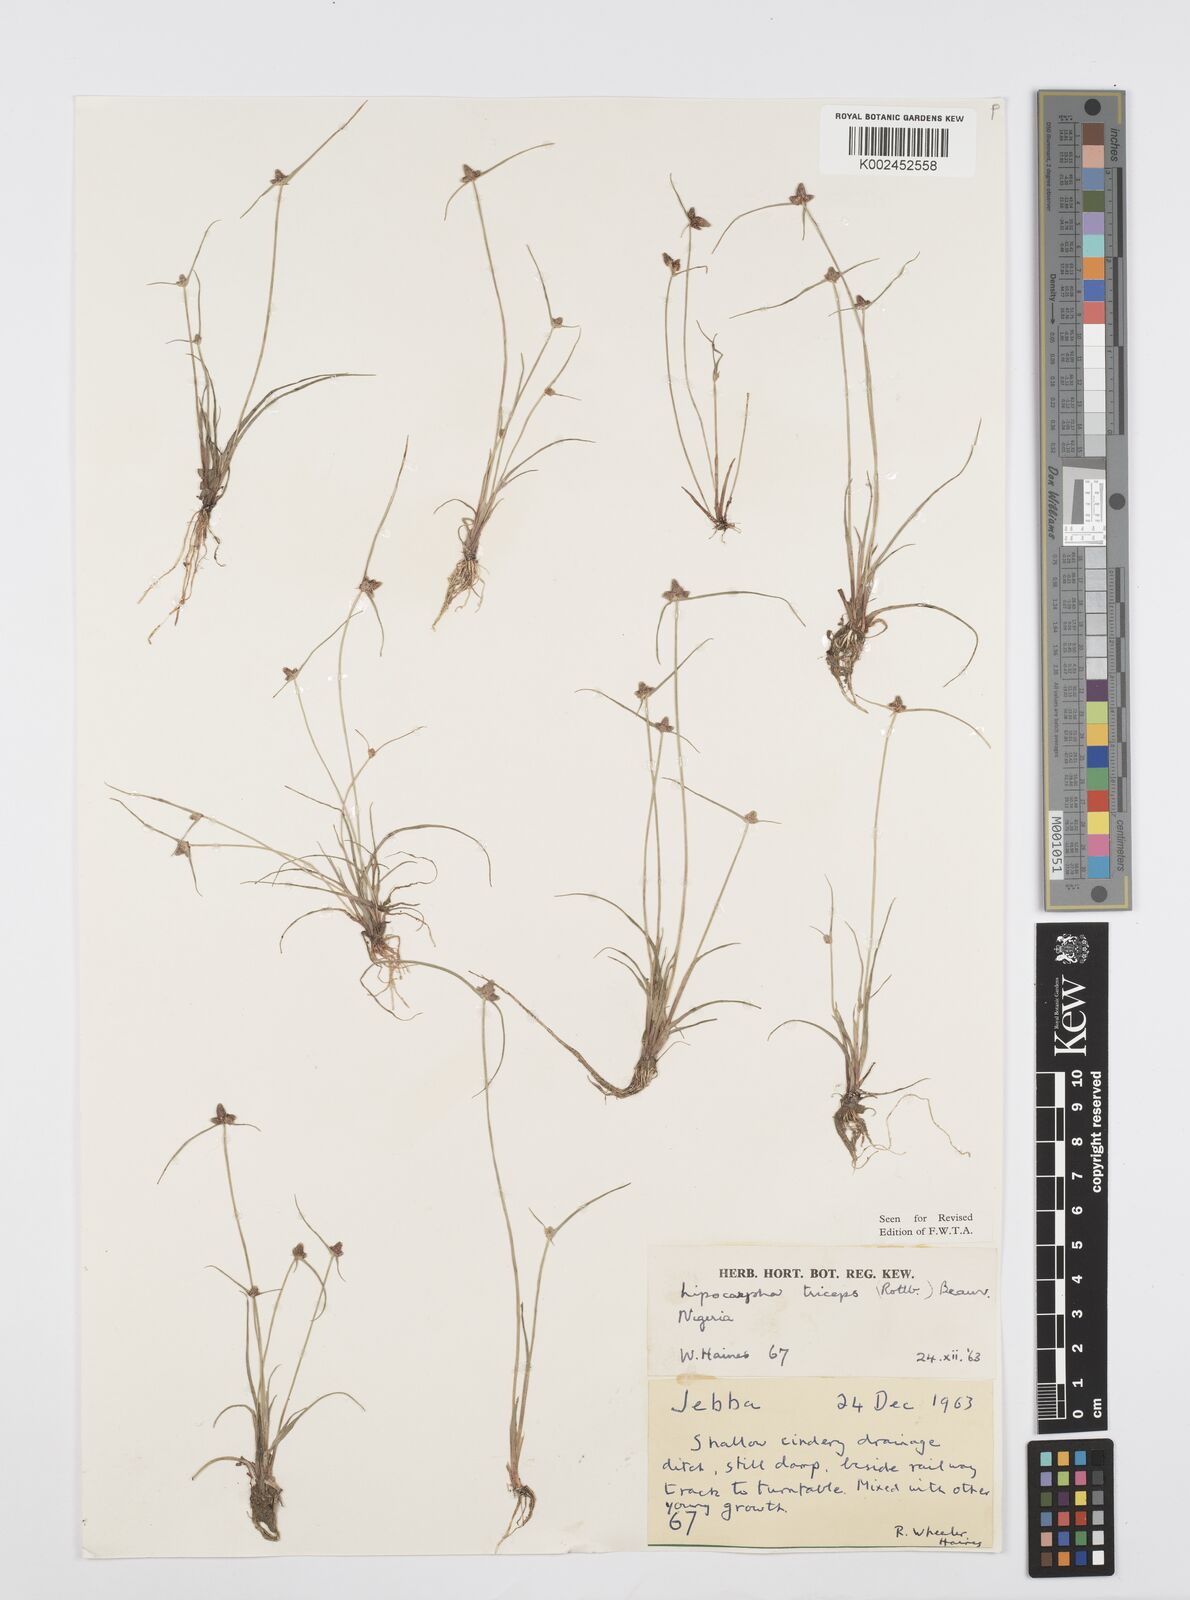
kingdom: Plantae
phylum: Tracheophyta
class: Liliopsida
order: Poales
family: Cyperaceae
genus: Cyperus
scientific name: Cyperus filiformis
